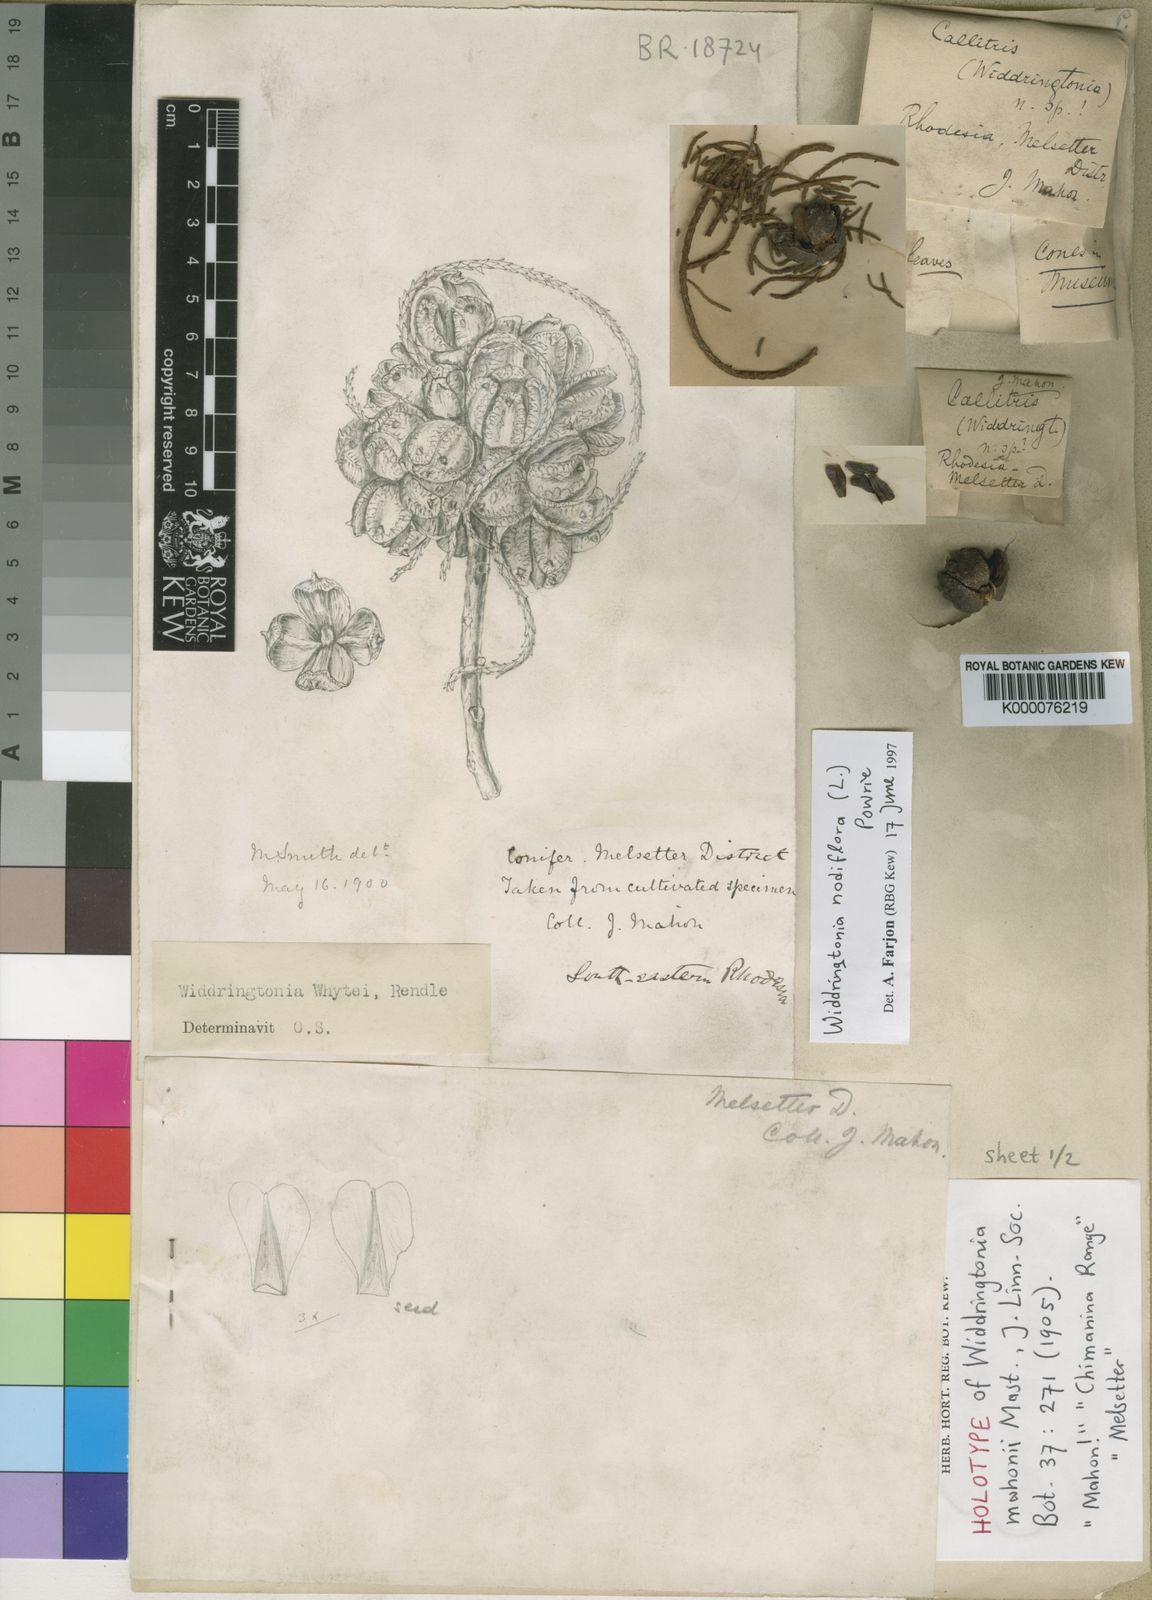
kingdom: Plantae
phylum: Tracheophyta
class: Pinopsida
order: Pinales
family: Cupressaceae
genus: Widdringtonia
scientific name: Widdringtonia nodiflora
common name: Cape cypress
